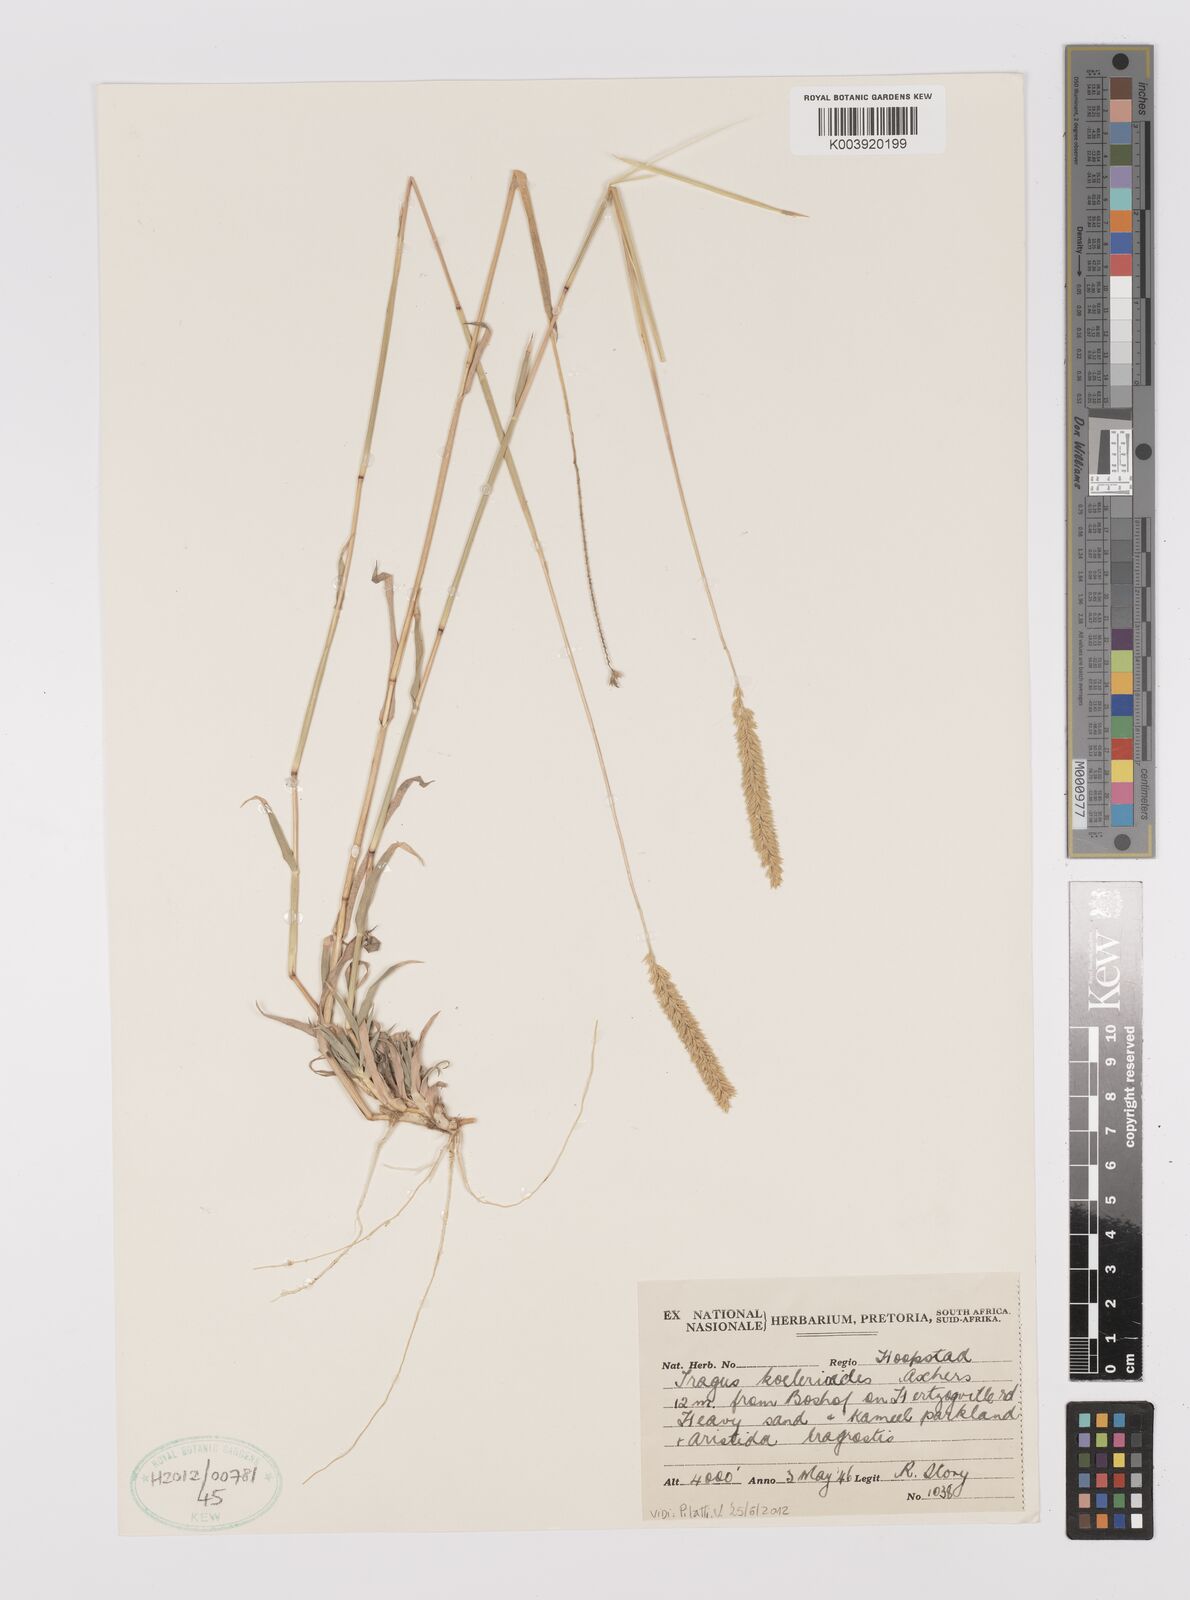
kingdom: Plantae
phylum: Tracheophyta
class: Liliopsida
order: Poales
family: Poaceae
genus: Tragus
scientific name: Tragus koelerioides
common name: Creeping carrot-seed grass
